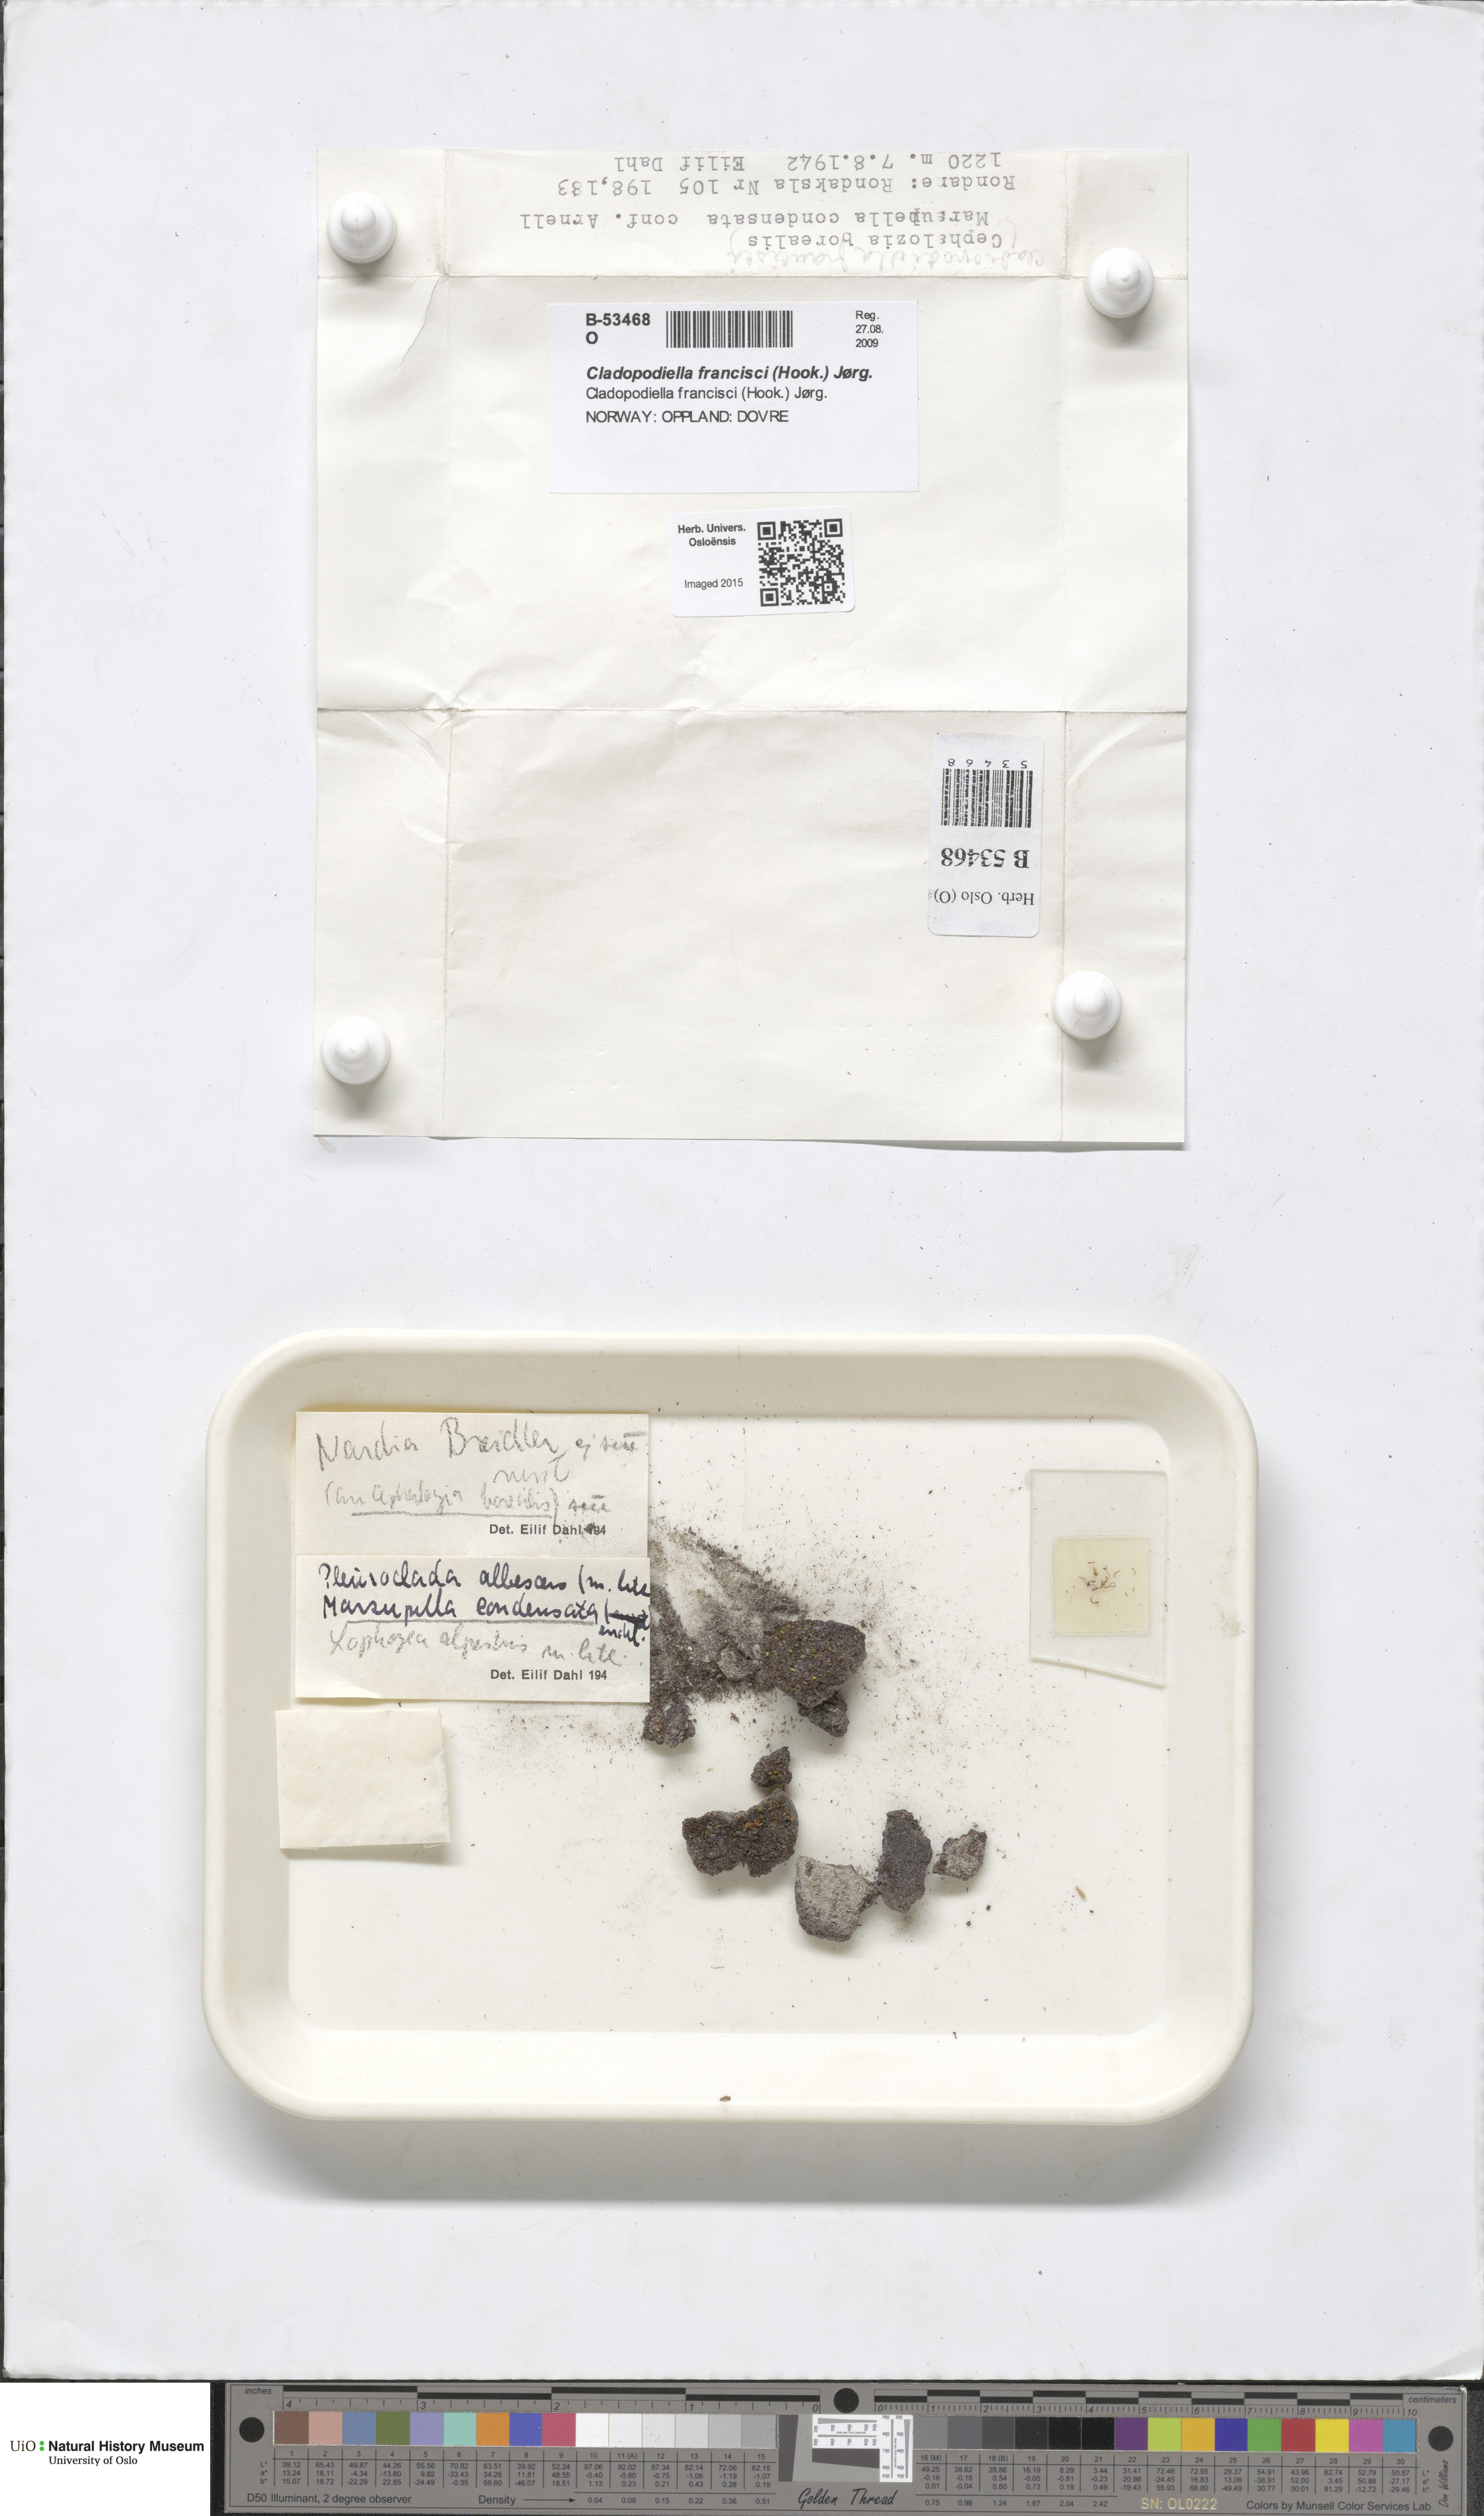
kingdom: Plantae
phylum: Marchantiophyta
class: Jungermanniopsida
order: Jungermanniales
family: Cephaloziaceae
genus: Odontoschisma
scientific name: Odontoschisma francisci
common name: Holt notchwort
